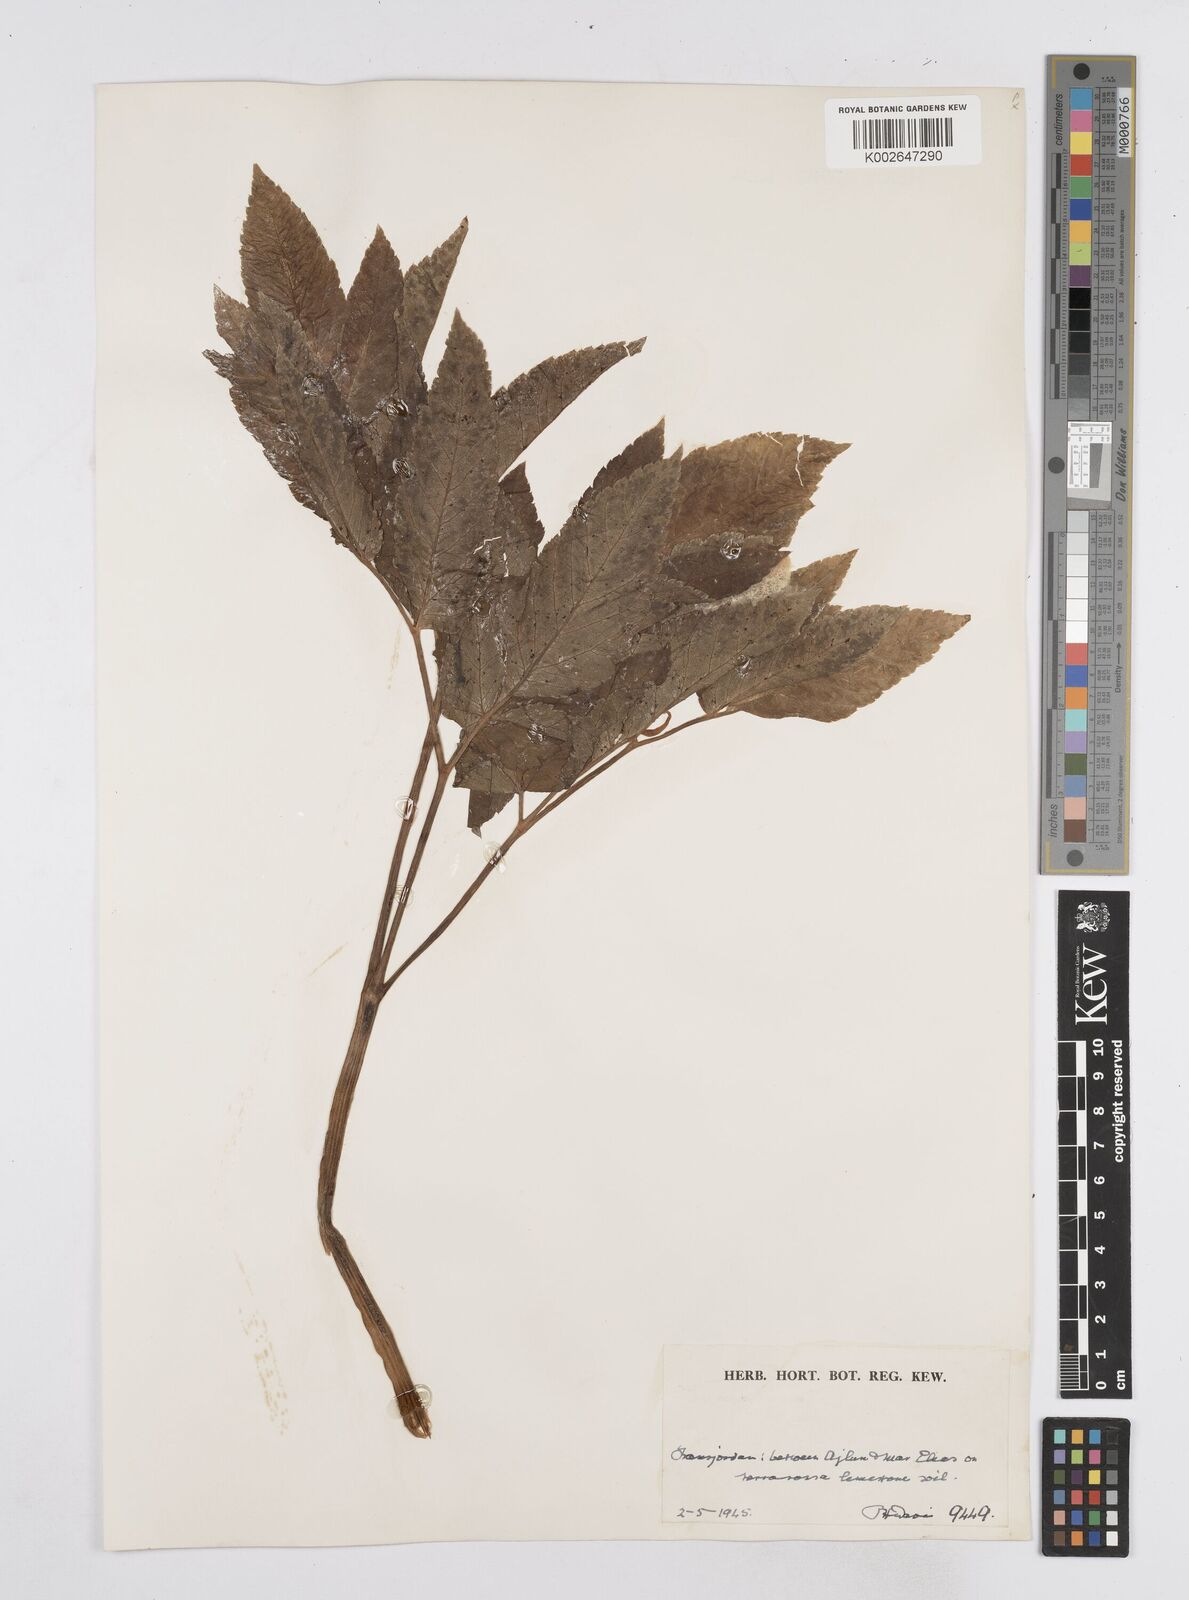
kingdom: Plantae
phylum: Tracheophyta
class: Magnoliopsida
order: Apiales
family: Apiaceae
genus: Lecokia
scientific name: Lecokia cretica
